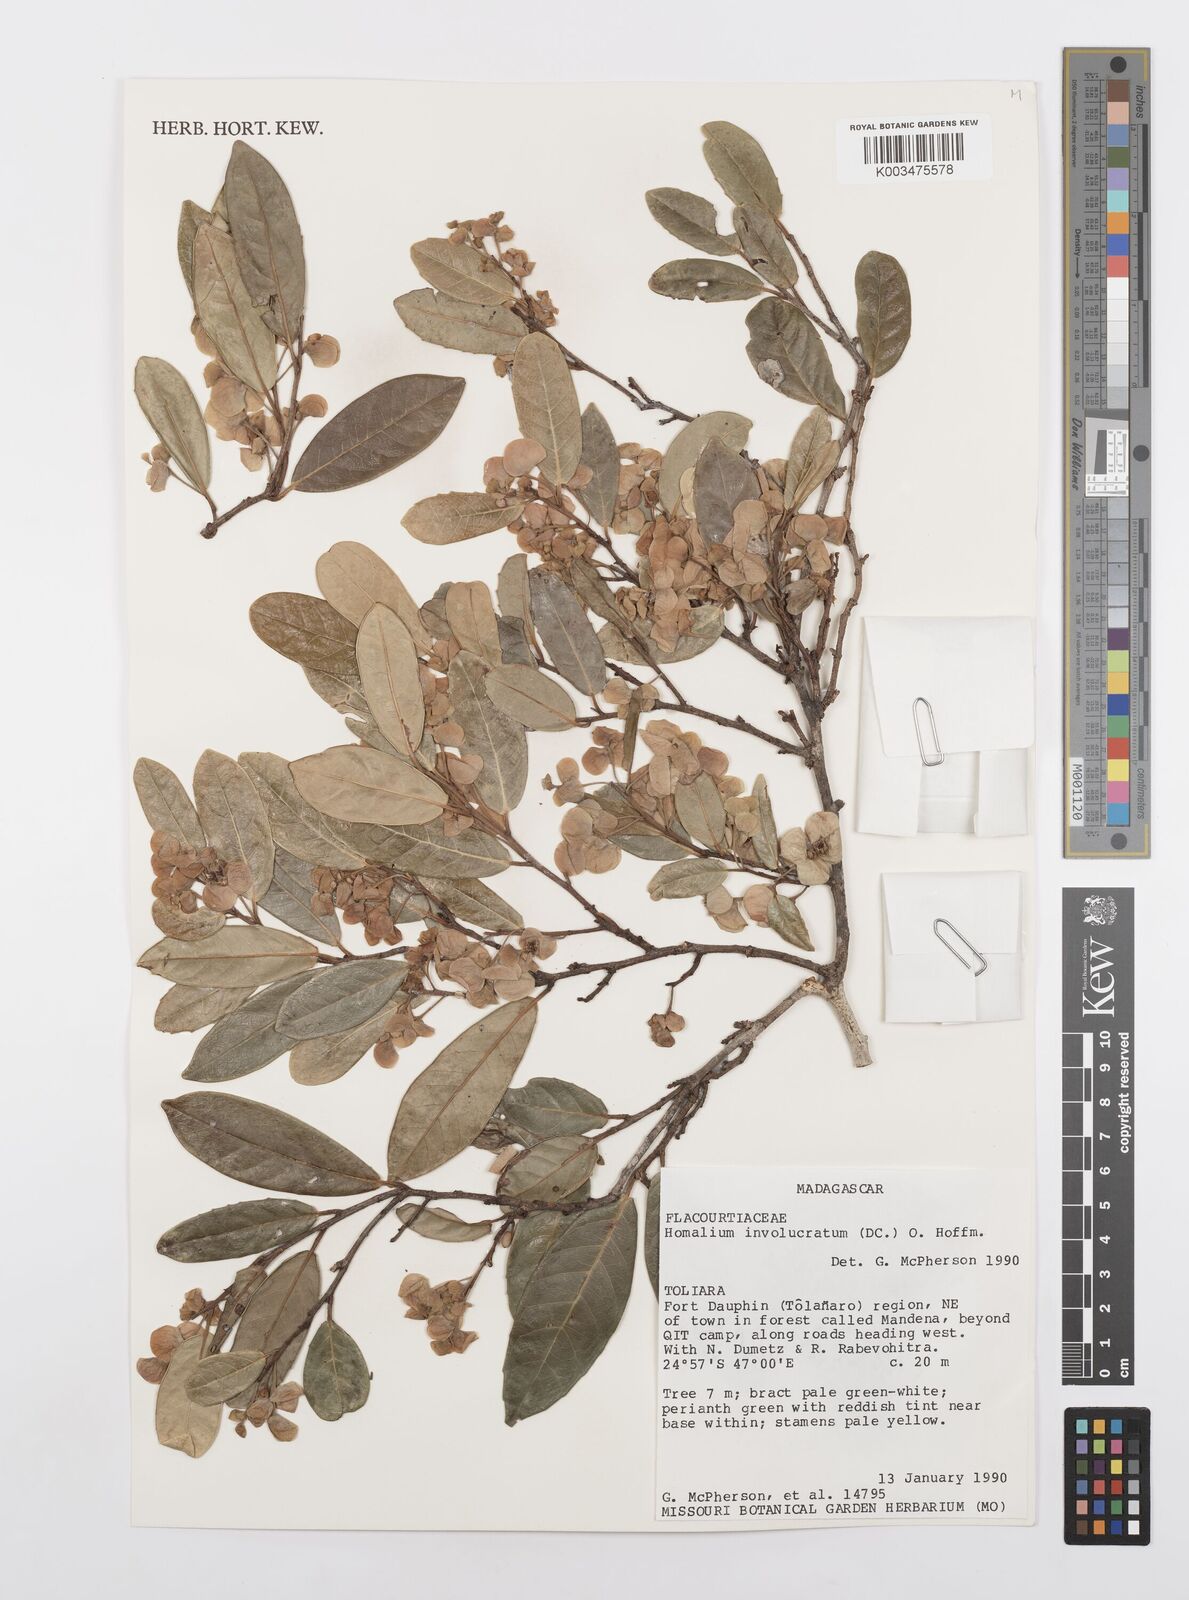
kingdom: Plantae
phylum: Tracheophyta
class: Magnoliopsida
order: Malpighiales
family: Salicaceae
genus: Homalium
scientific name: Homalium involucratum
